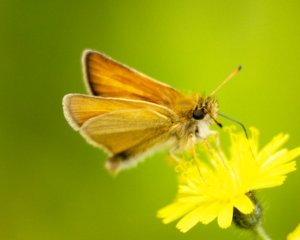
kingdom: Animalia
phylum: Arthropoda
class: Insecta
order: Lepidoptera
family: Hesperiidae
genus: Thymelicus
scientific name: Thymelicus lineola
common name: European Skipper
